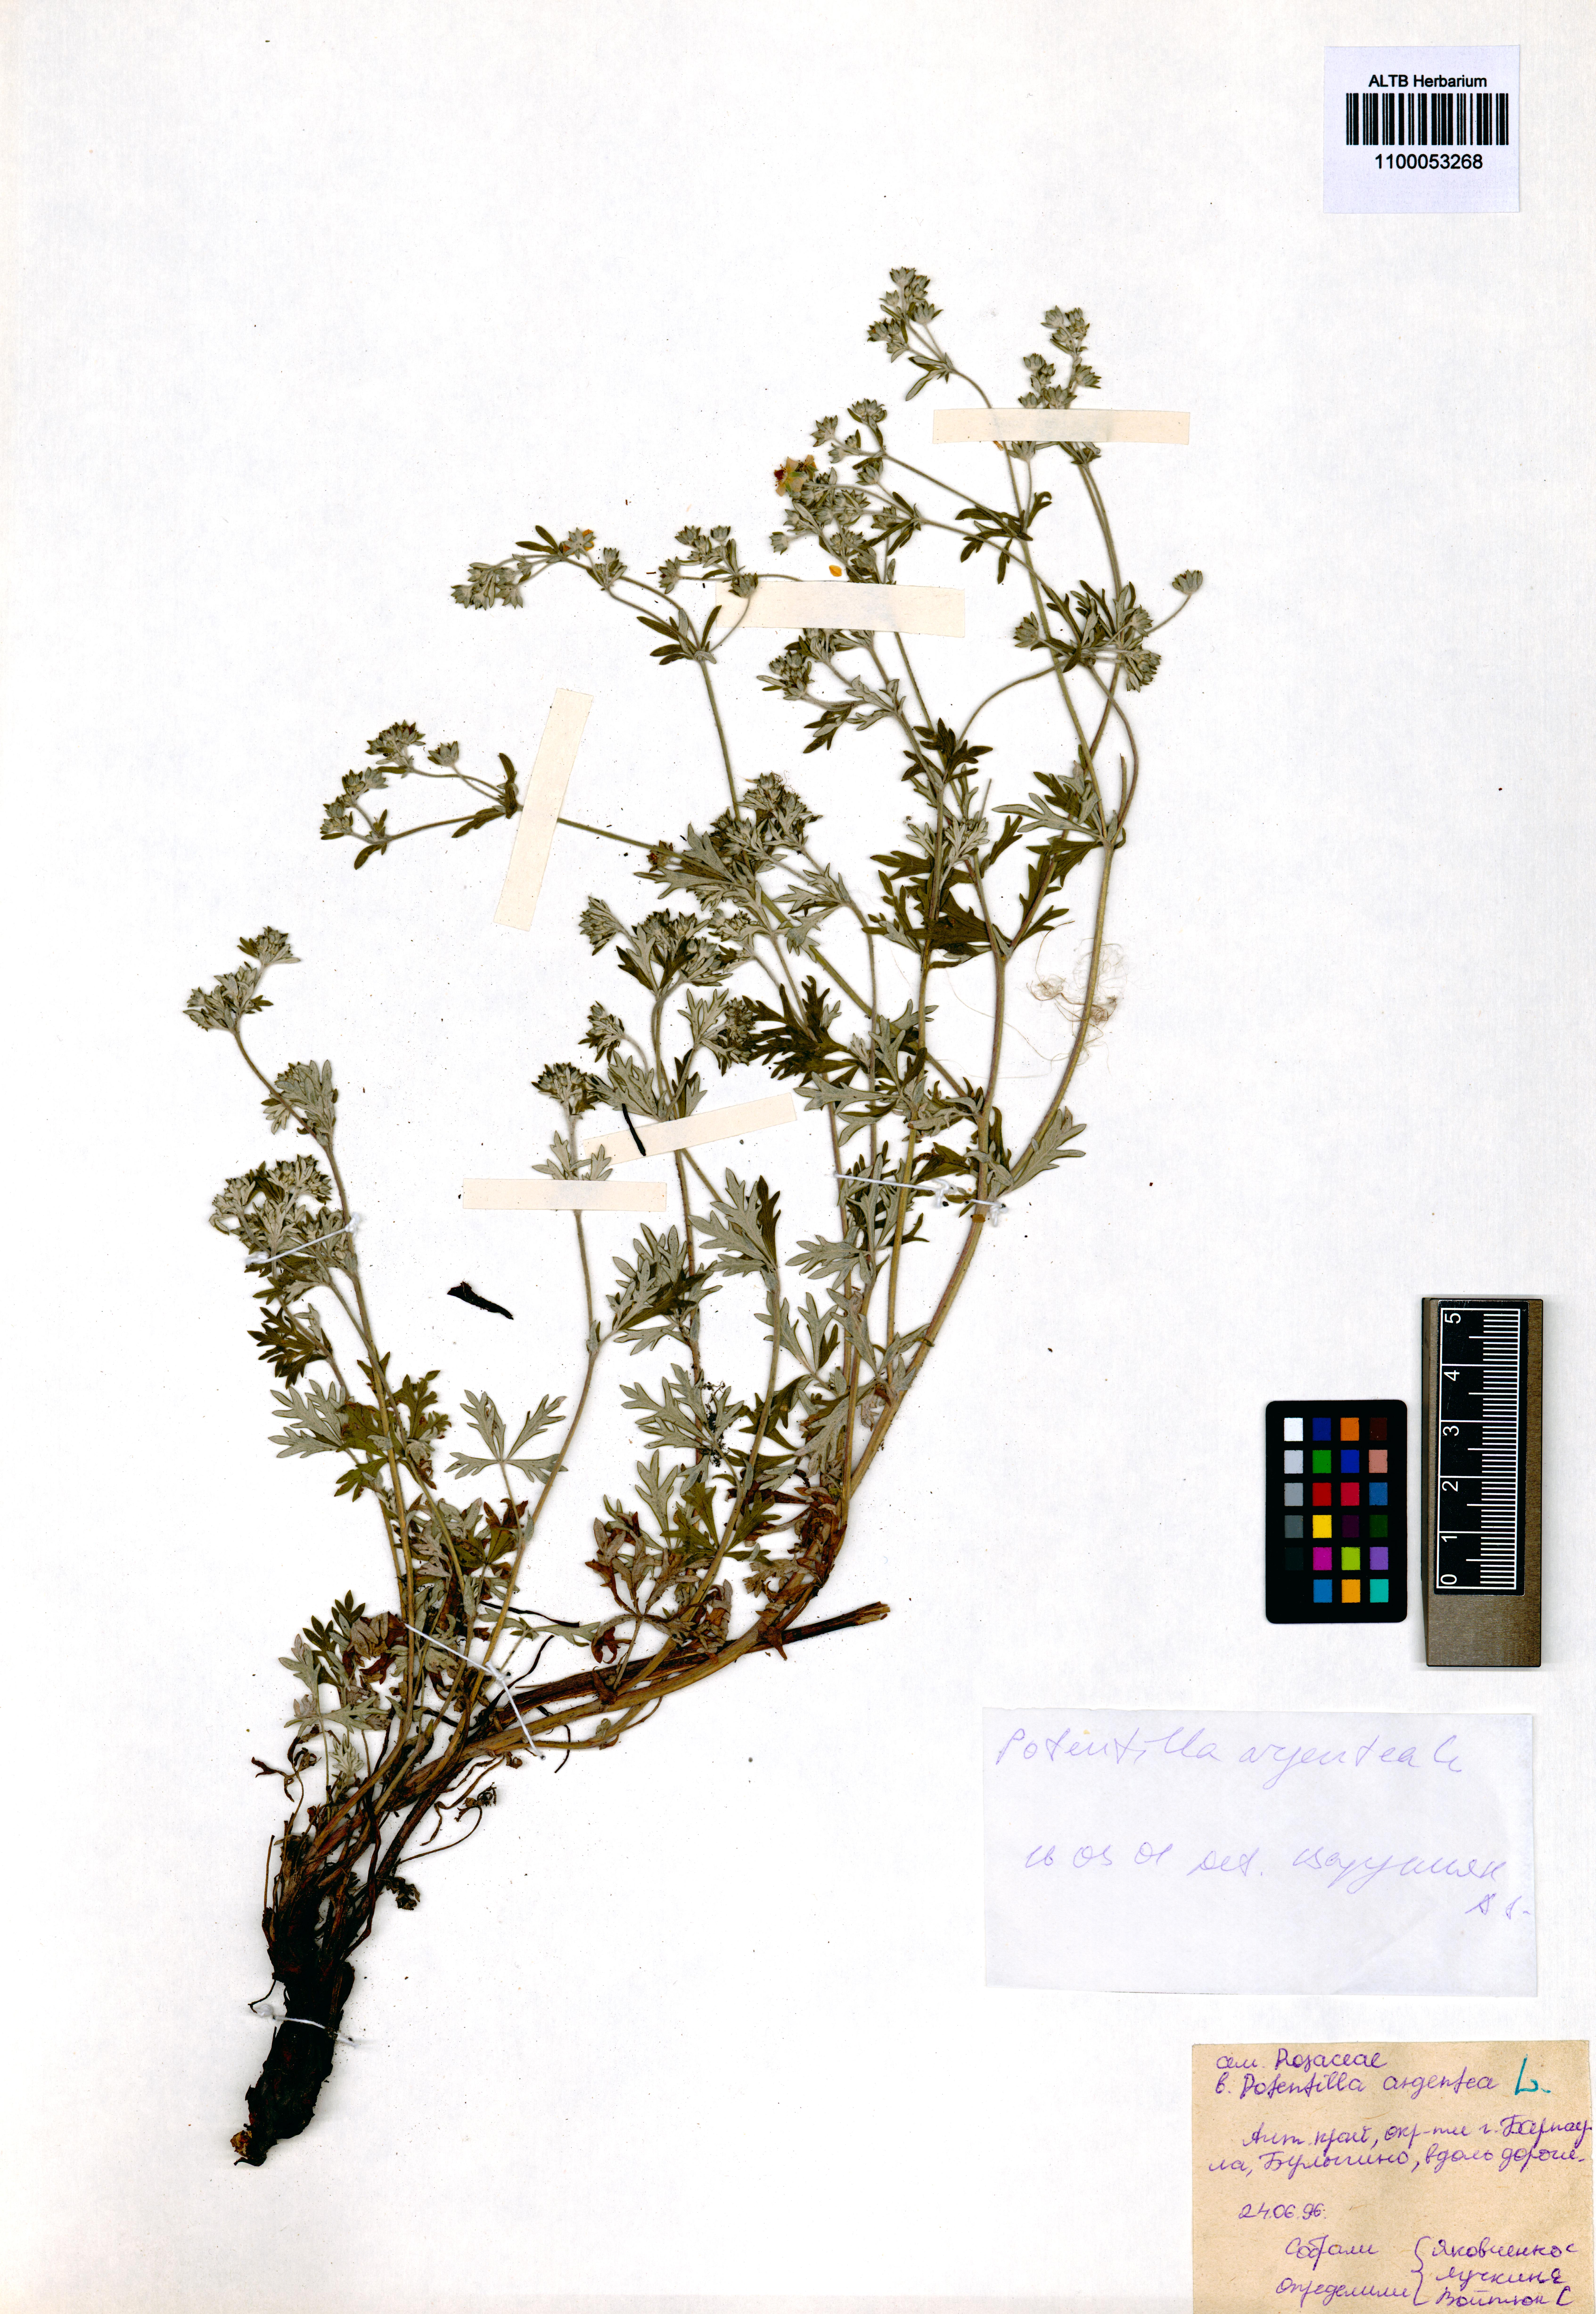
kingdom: Plantae
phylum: Tracheophyta
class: Magnoliopsida
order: Rosales
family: Rosaceae
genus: Potentilla
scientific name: Potentilla argentea
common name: Hoary cinquefoil
